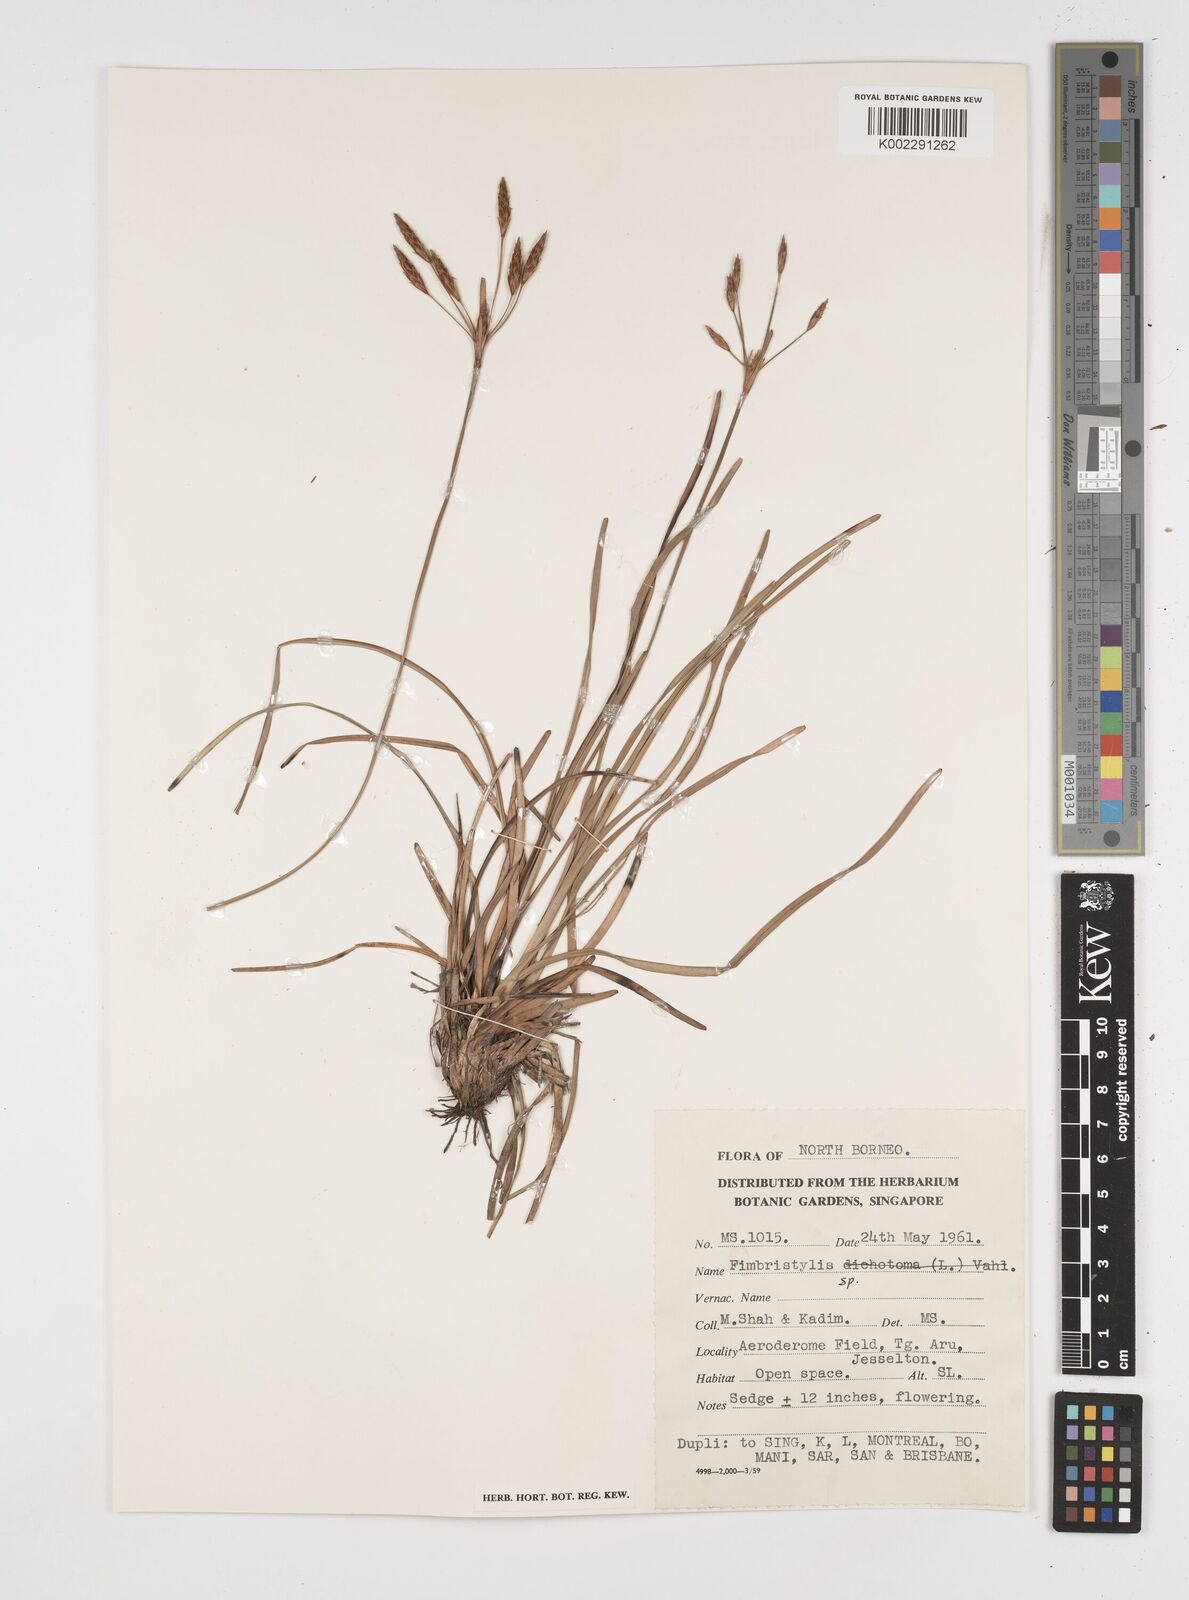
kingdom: Plantae
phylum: Tracheophyta
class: Liliopsida
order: Poales
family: Cyperaceae
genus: Fimbristylis
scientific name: Fimbristylis
